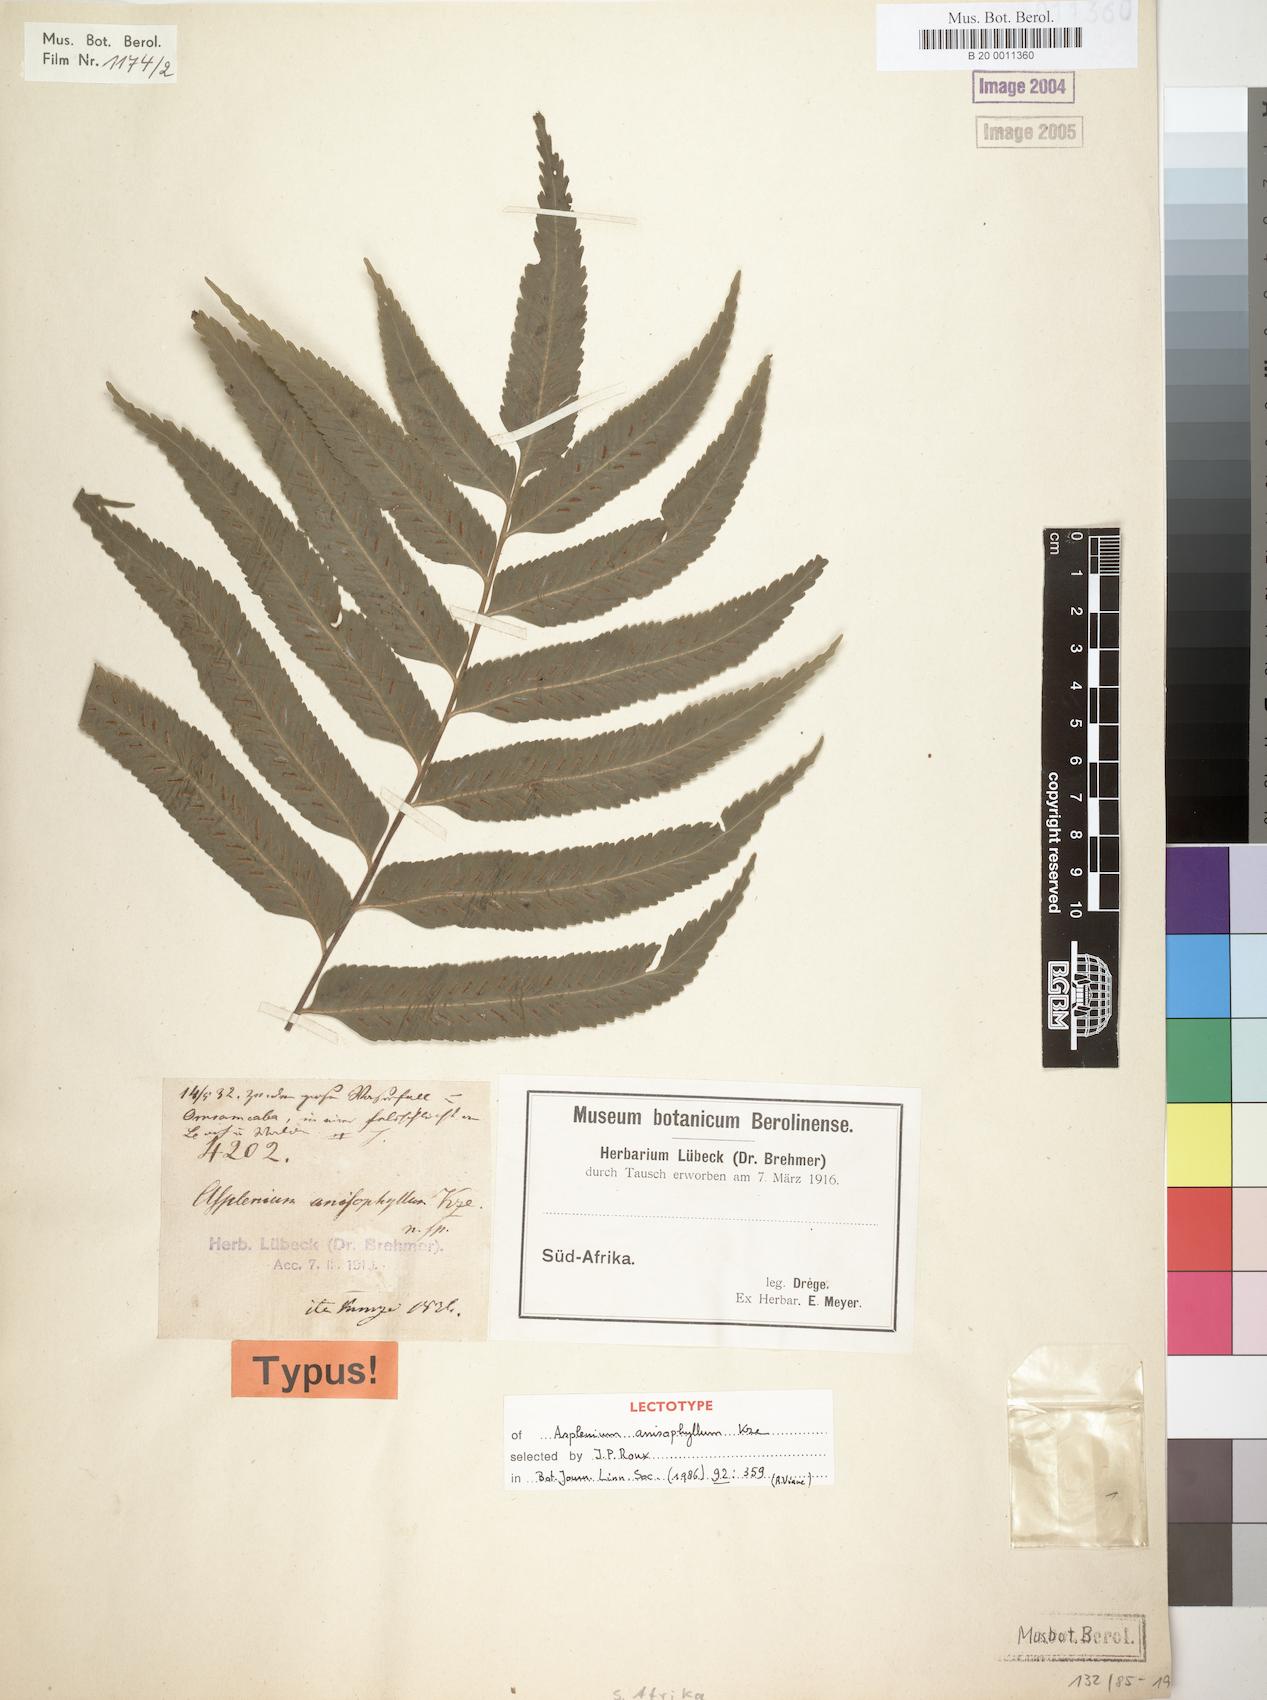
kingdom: Plantae
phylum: Tracheophyta
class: Polypodiopsida
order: Polypodiales
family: Aspleniaceae
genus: Asplenium
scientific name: Asplenium anisophyllum
